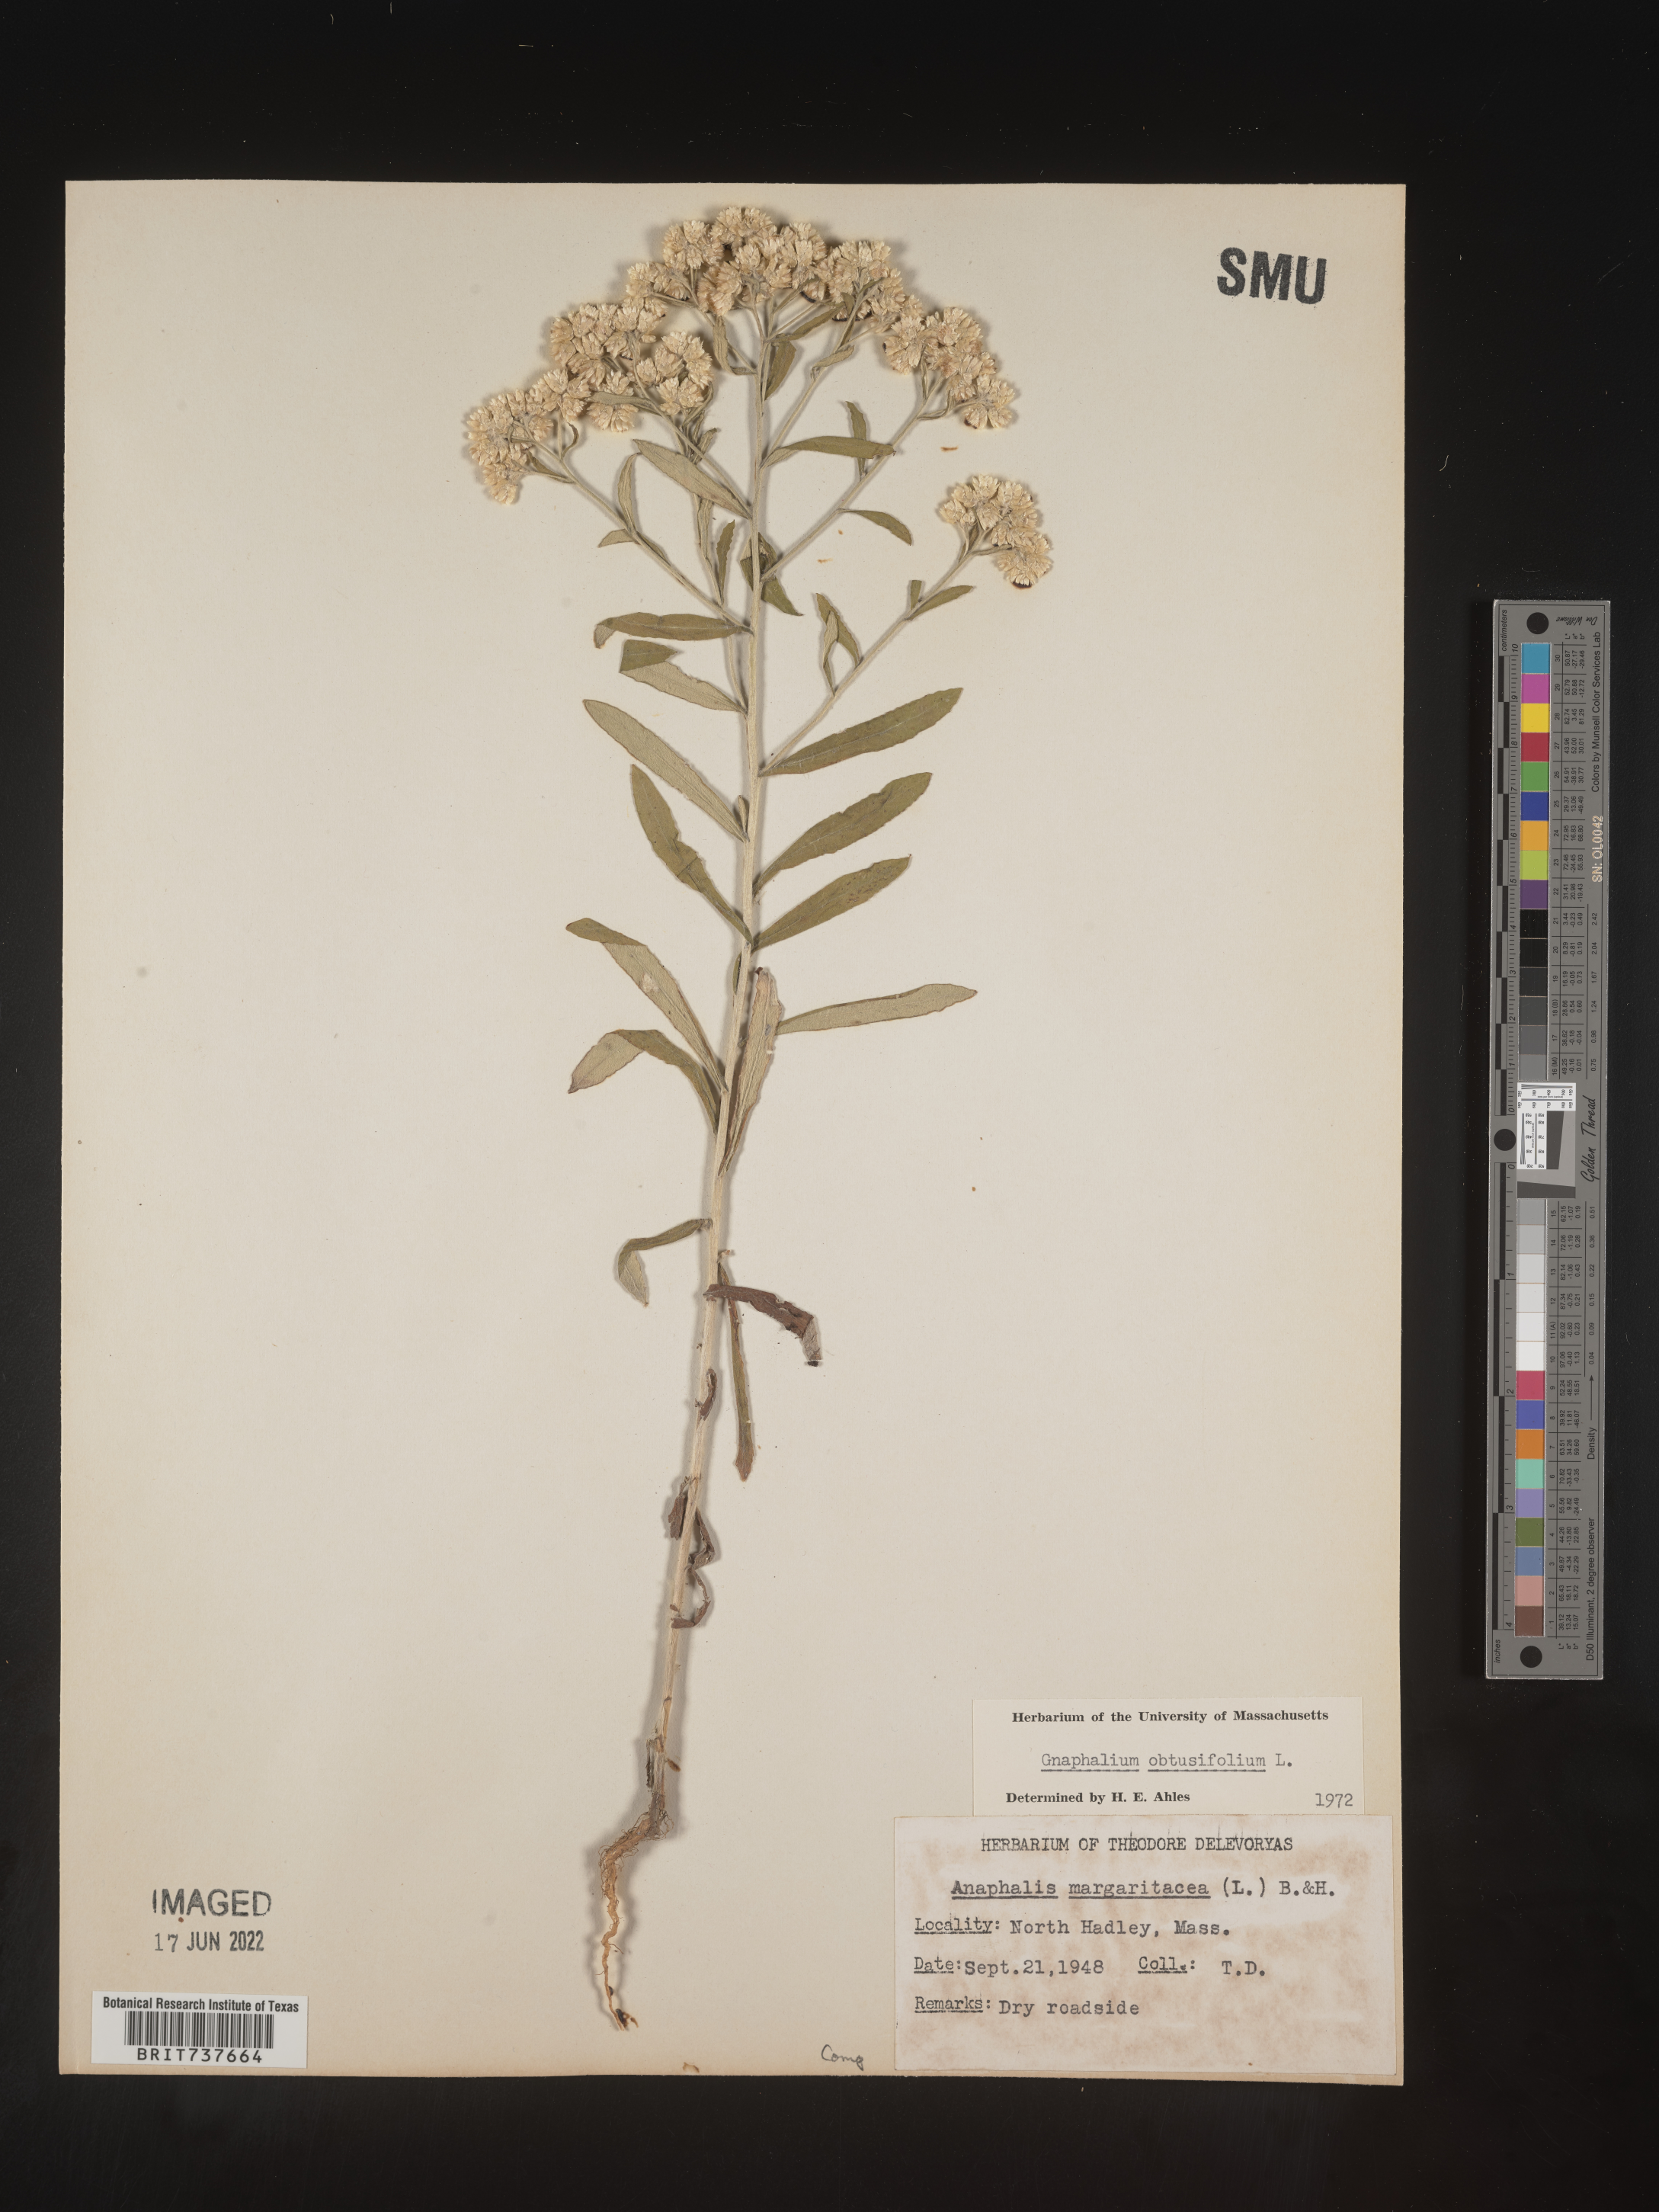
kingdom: Plantae
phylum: Tracheophyta
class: Magnoliopsida
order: Asterales
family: Asteraceae
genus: Pseudognaphalium
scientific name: Pseudognaphalium obtusifolium
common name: Eastern rabbit-tobacco
